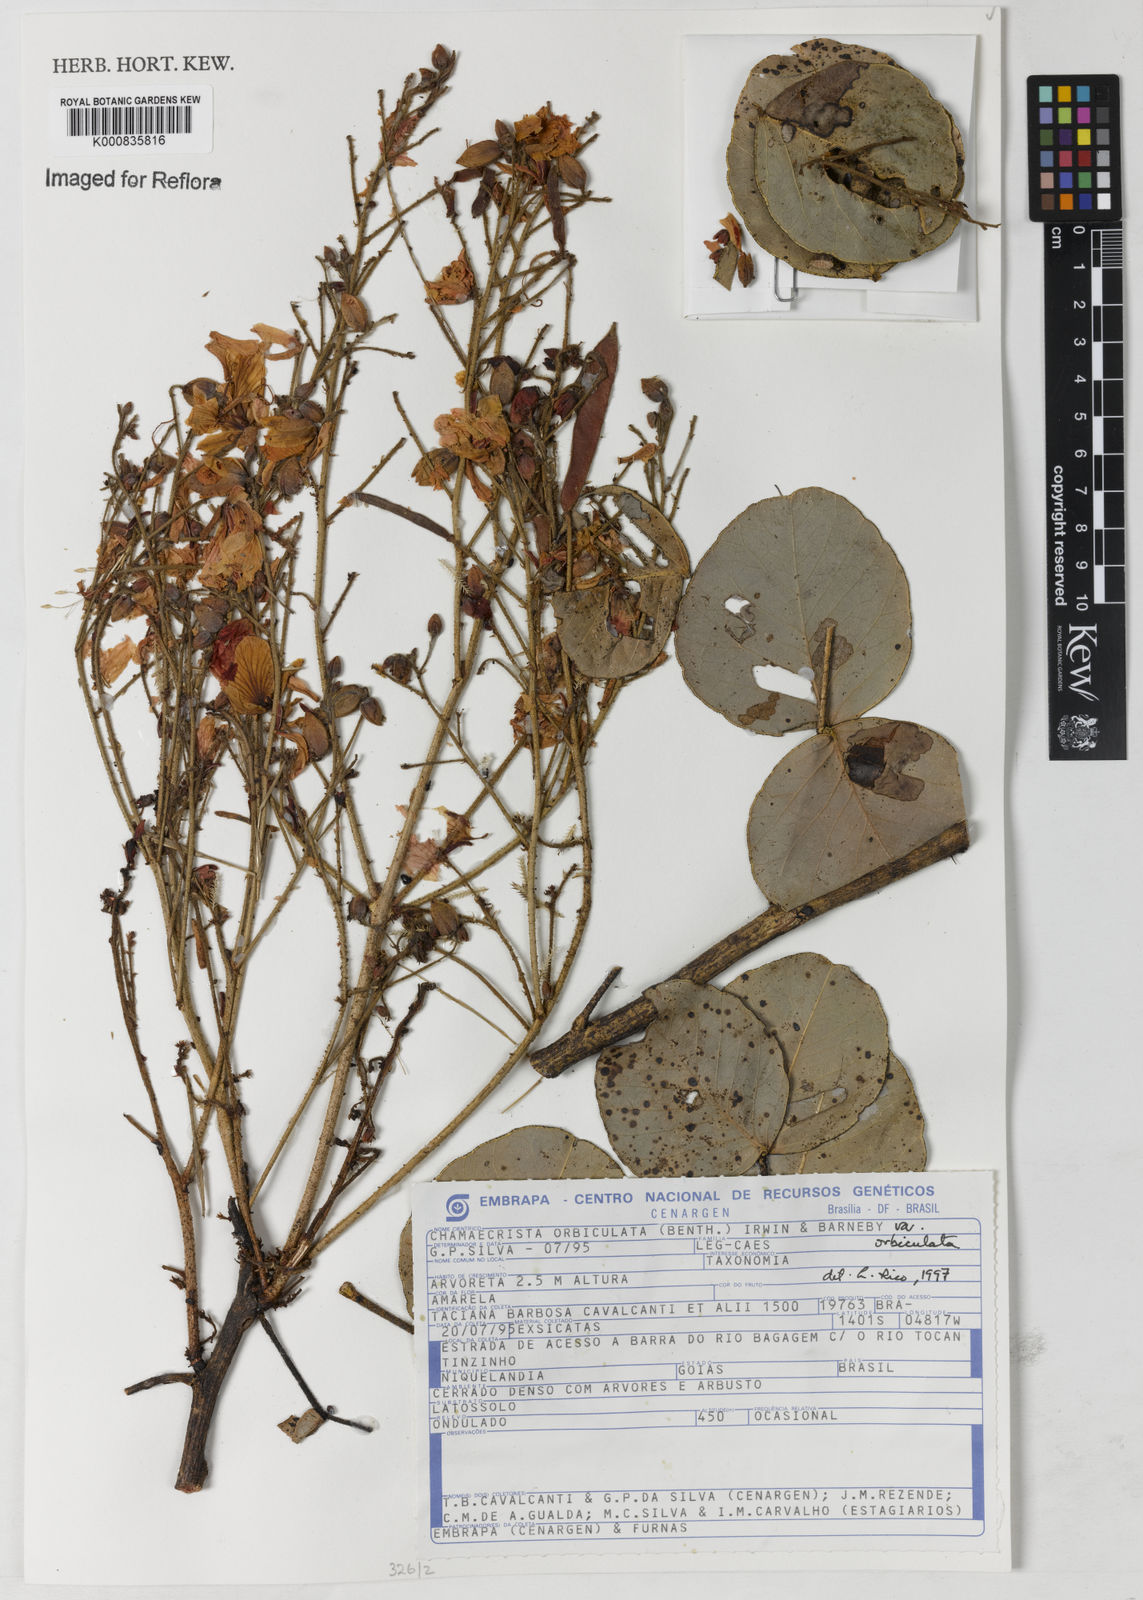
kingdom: Plantae
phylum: Tracheophyta
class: Magnoliopsida
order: Fabales
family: Fabaceae
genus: Chamaecrista
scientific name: Chamaecrista orbiculata
